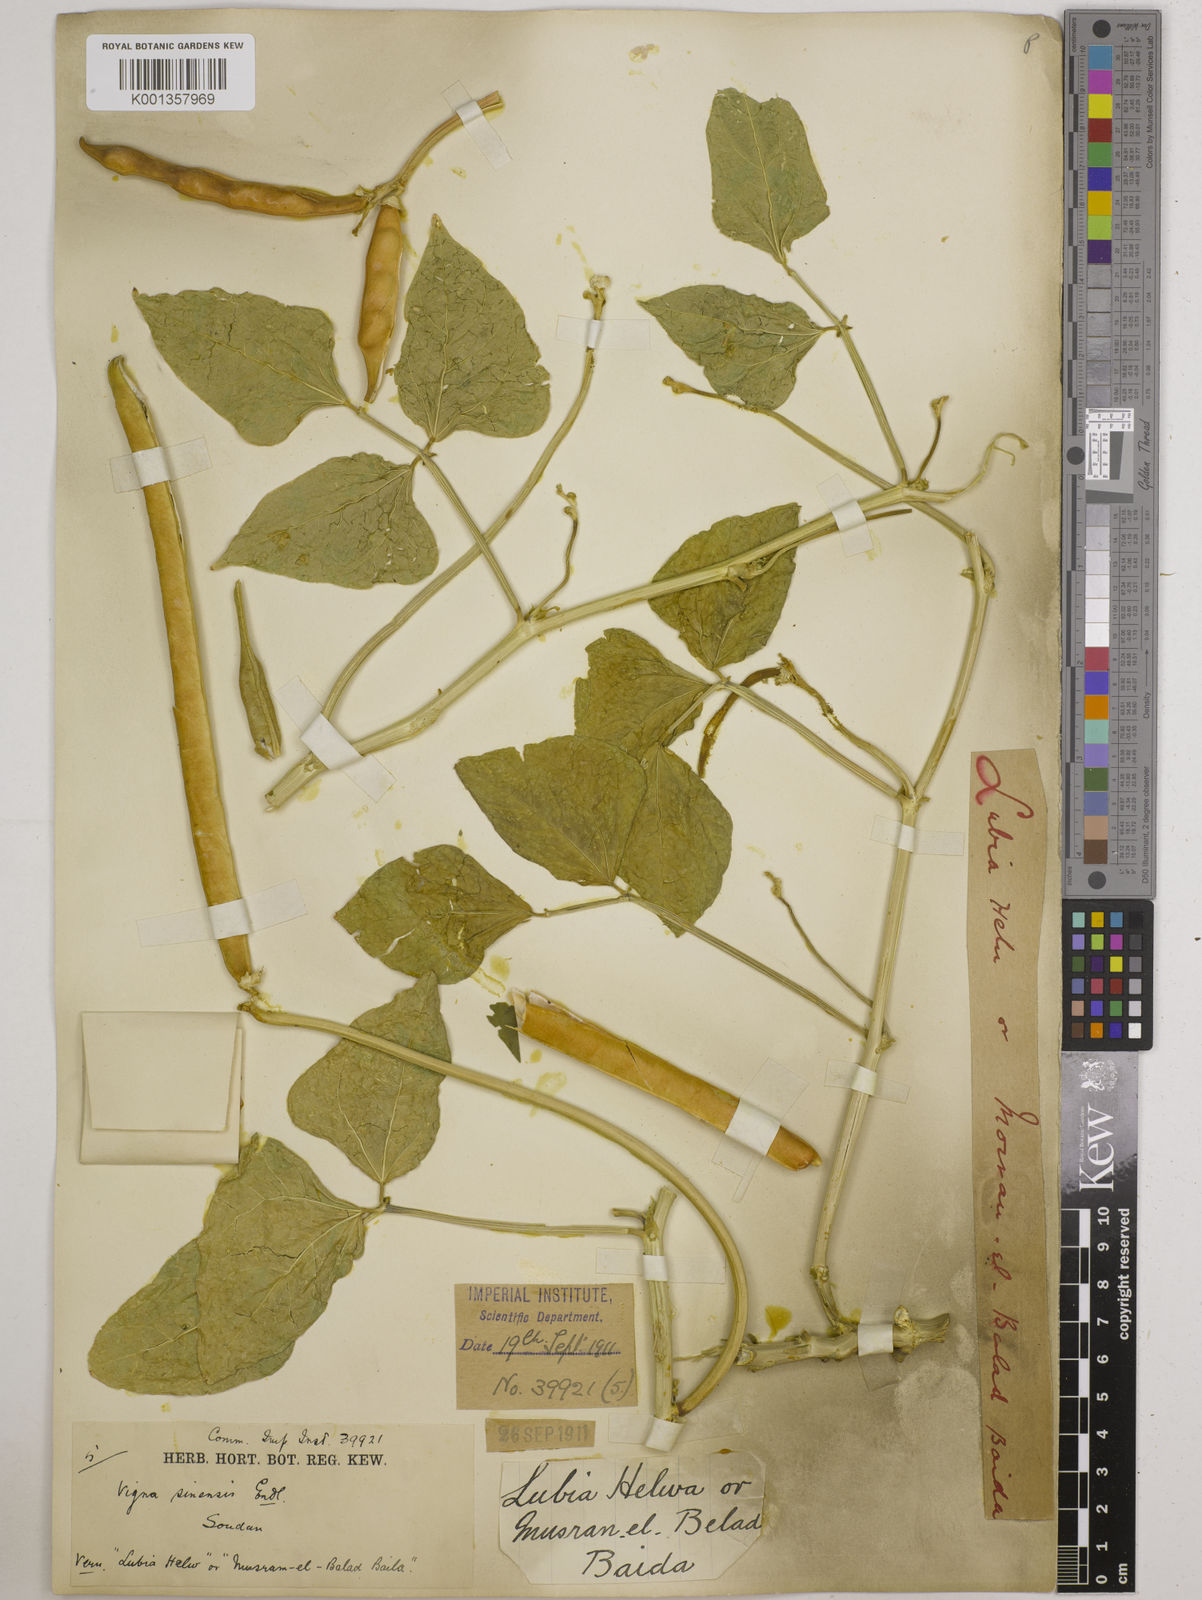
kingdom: Plantae
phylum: Tracheophyta
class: Magnoliopsida
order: Fabales
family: Fabaceae
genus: Vigna
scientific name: Vigna unguiculata
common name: Cowpea
